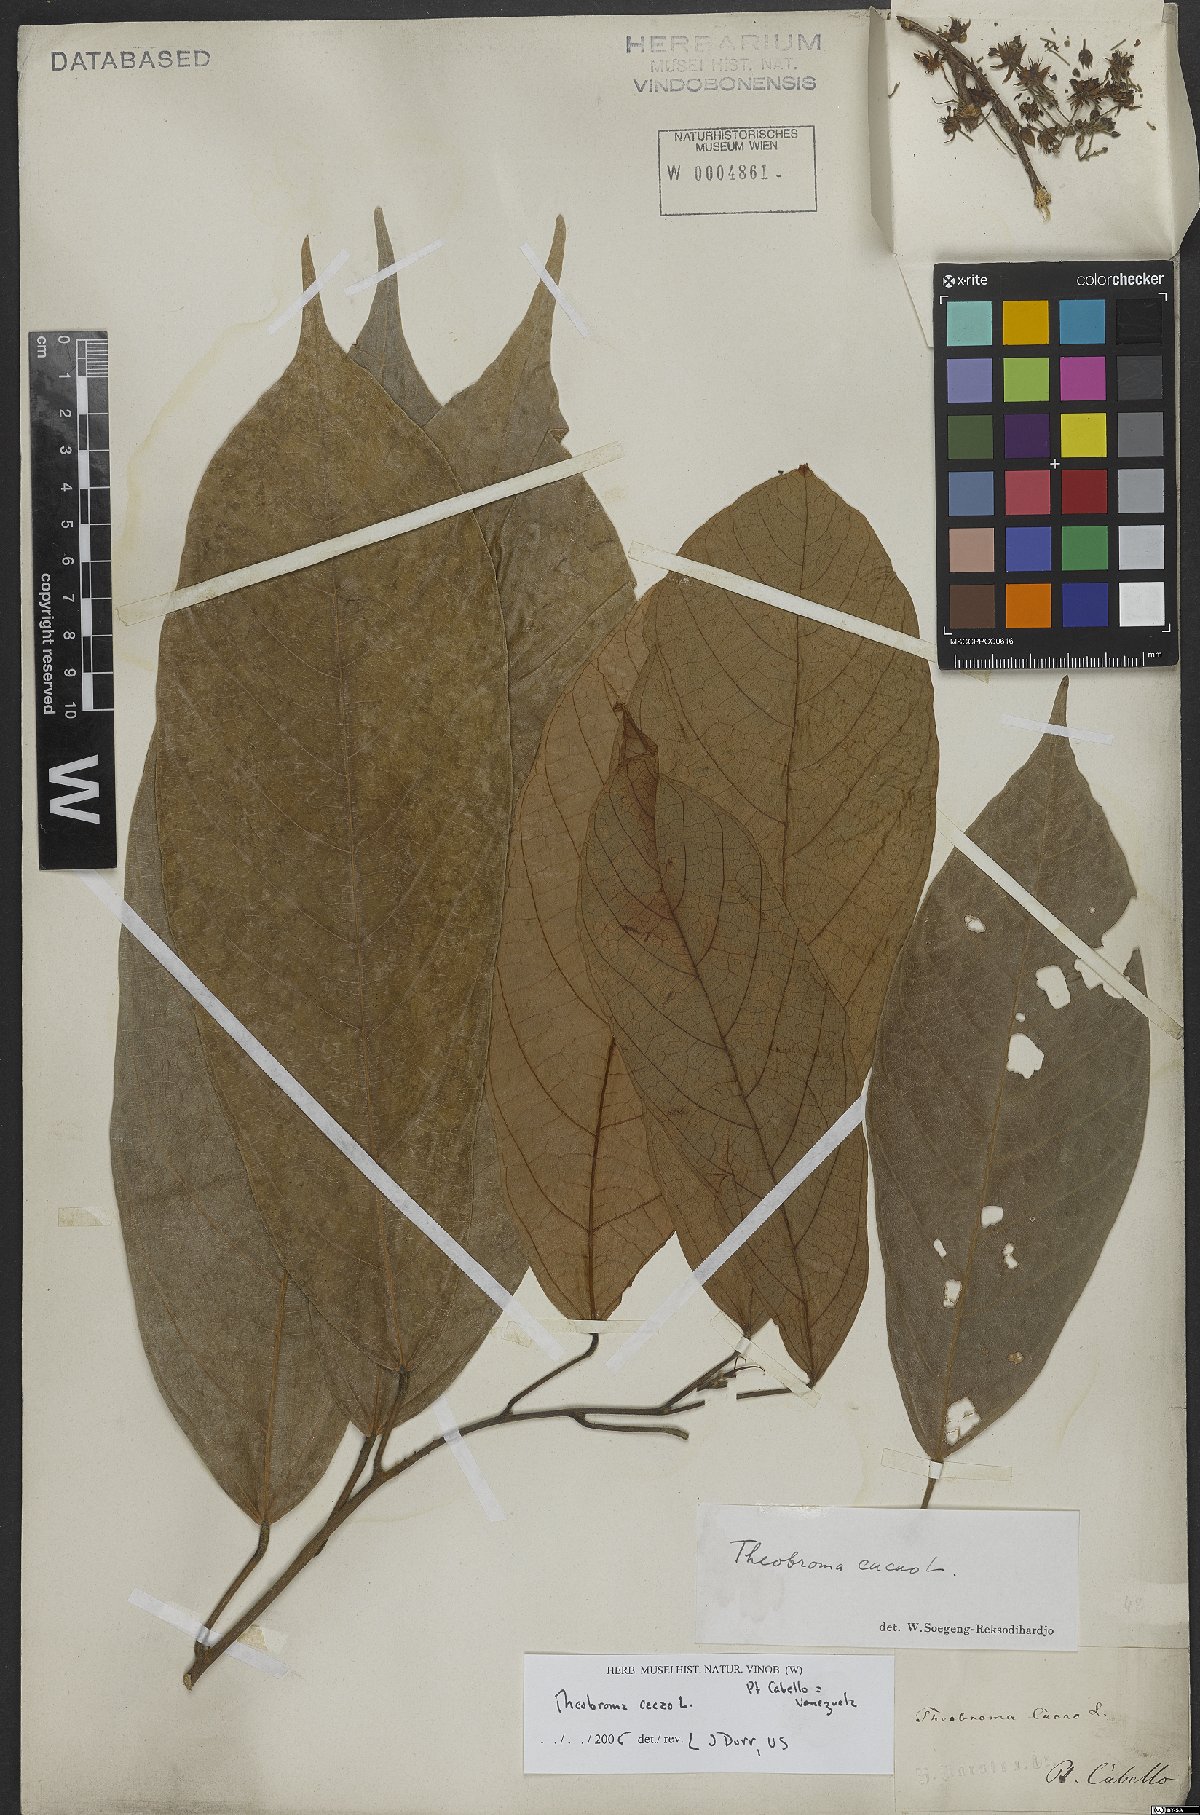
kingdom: Plantae
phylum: Tracheophyta
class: Magnoliopsida
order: Malvales
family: Malvaceae
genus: Theobroma
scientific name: Theobroma cacao
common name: Cocoa
